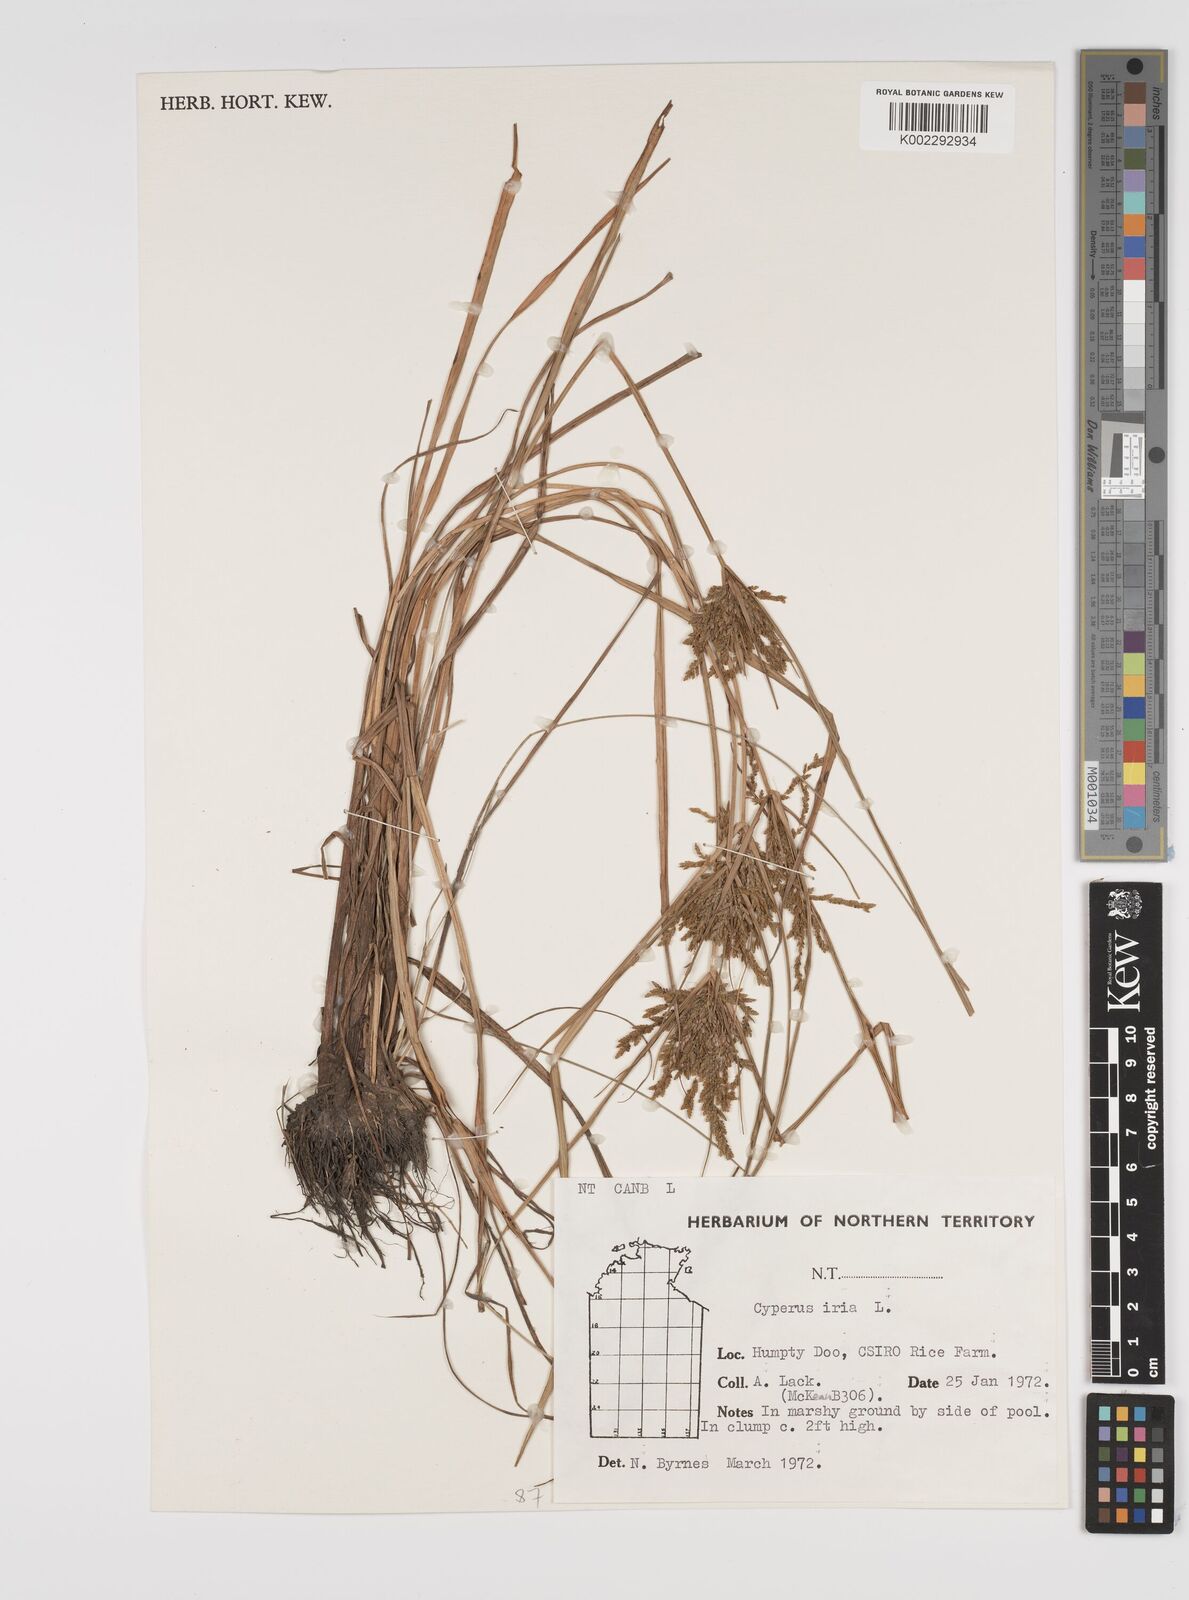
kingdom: Plantae
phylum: Tracheophyta
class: Liliopsida
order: Poales
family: Cyperaceae
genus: Cyperus
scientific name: Cyperus iria
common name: Ricefield flatsedge
